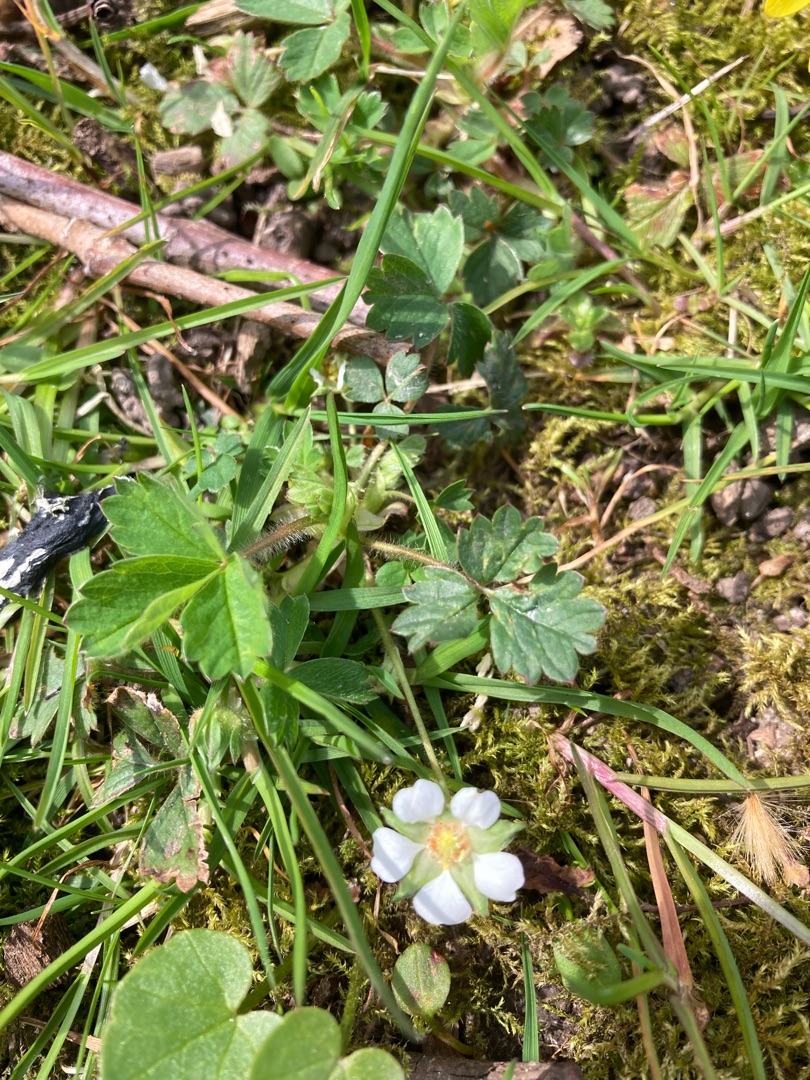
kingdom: Plantae
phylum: Tracheophyta
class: Magnoliopsida
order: Rosales
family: Rosaceae
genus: Potentilla
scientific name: Potentilla sterilis
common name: Jordbær-potentil
